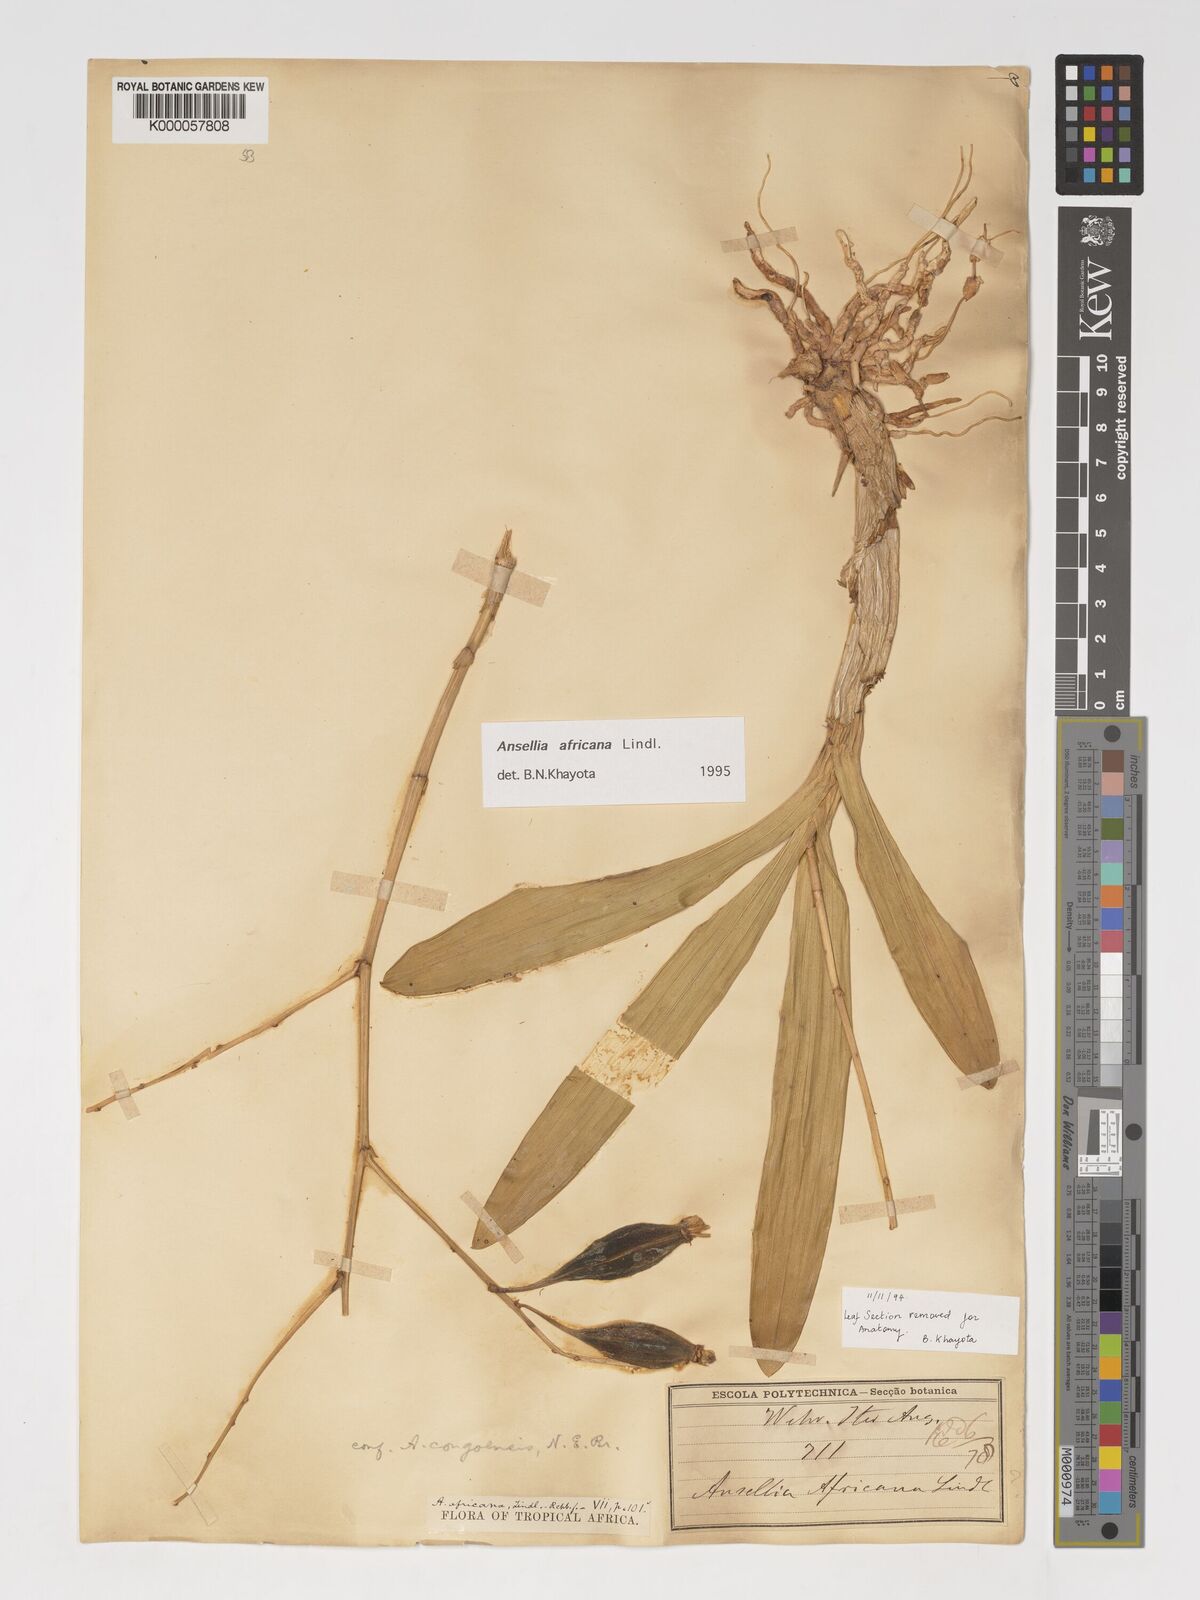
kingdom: Plantae
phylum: Tracheophyta
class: Liliopsida
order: Asparagales
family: Orchidaceae
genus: Ansellia
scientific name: Ansellia africana
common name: African ansellia
